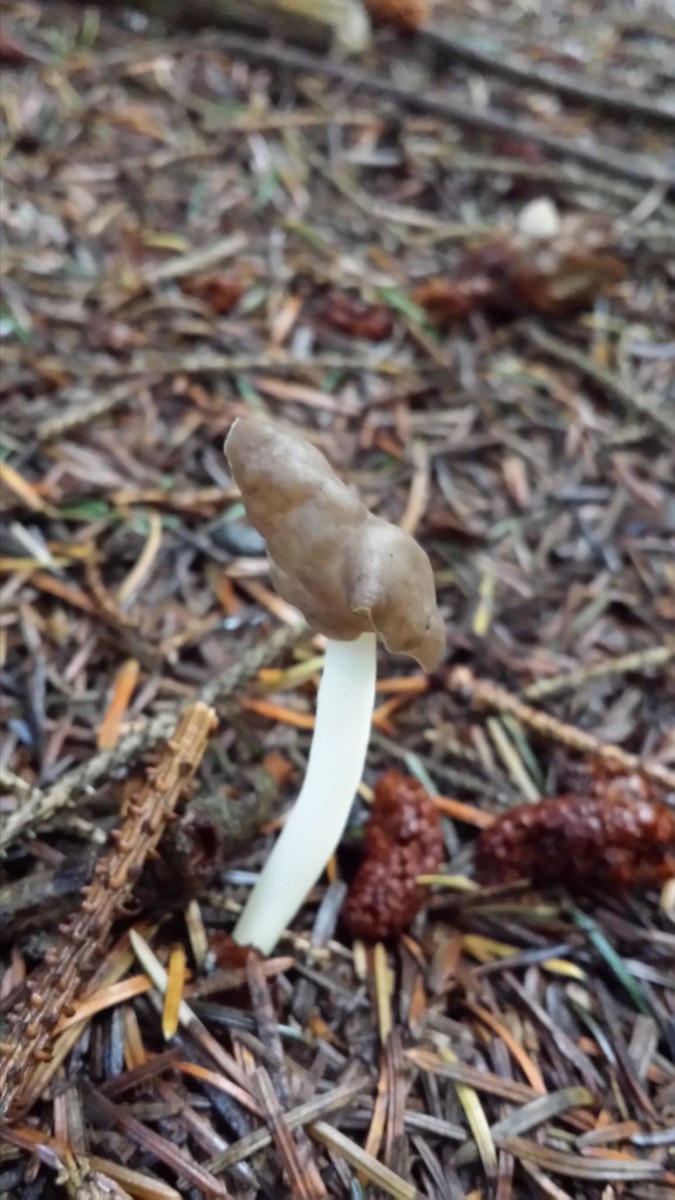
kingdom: Fungi
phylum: Ascomycota
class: Pezizomycetes
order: Pezizales
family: Helvellaceae
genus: Helvella
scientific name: Helvella elastica
